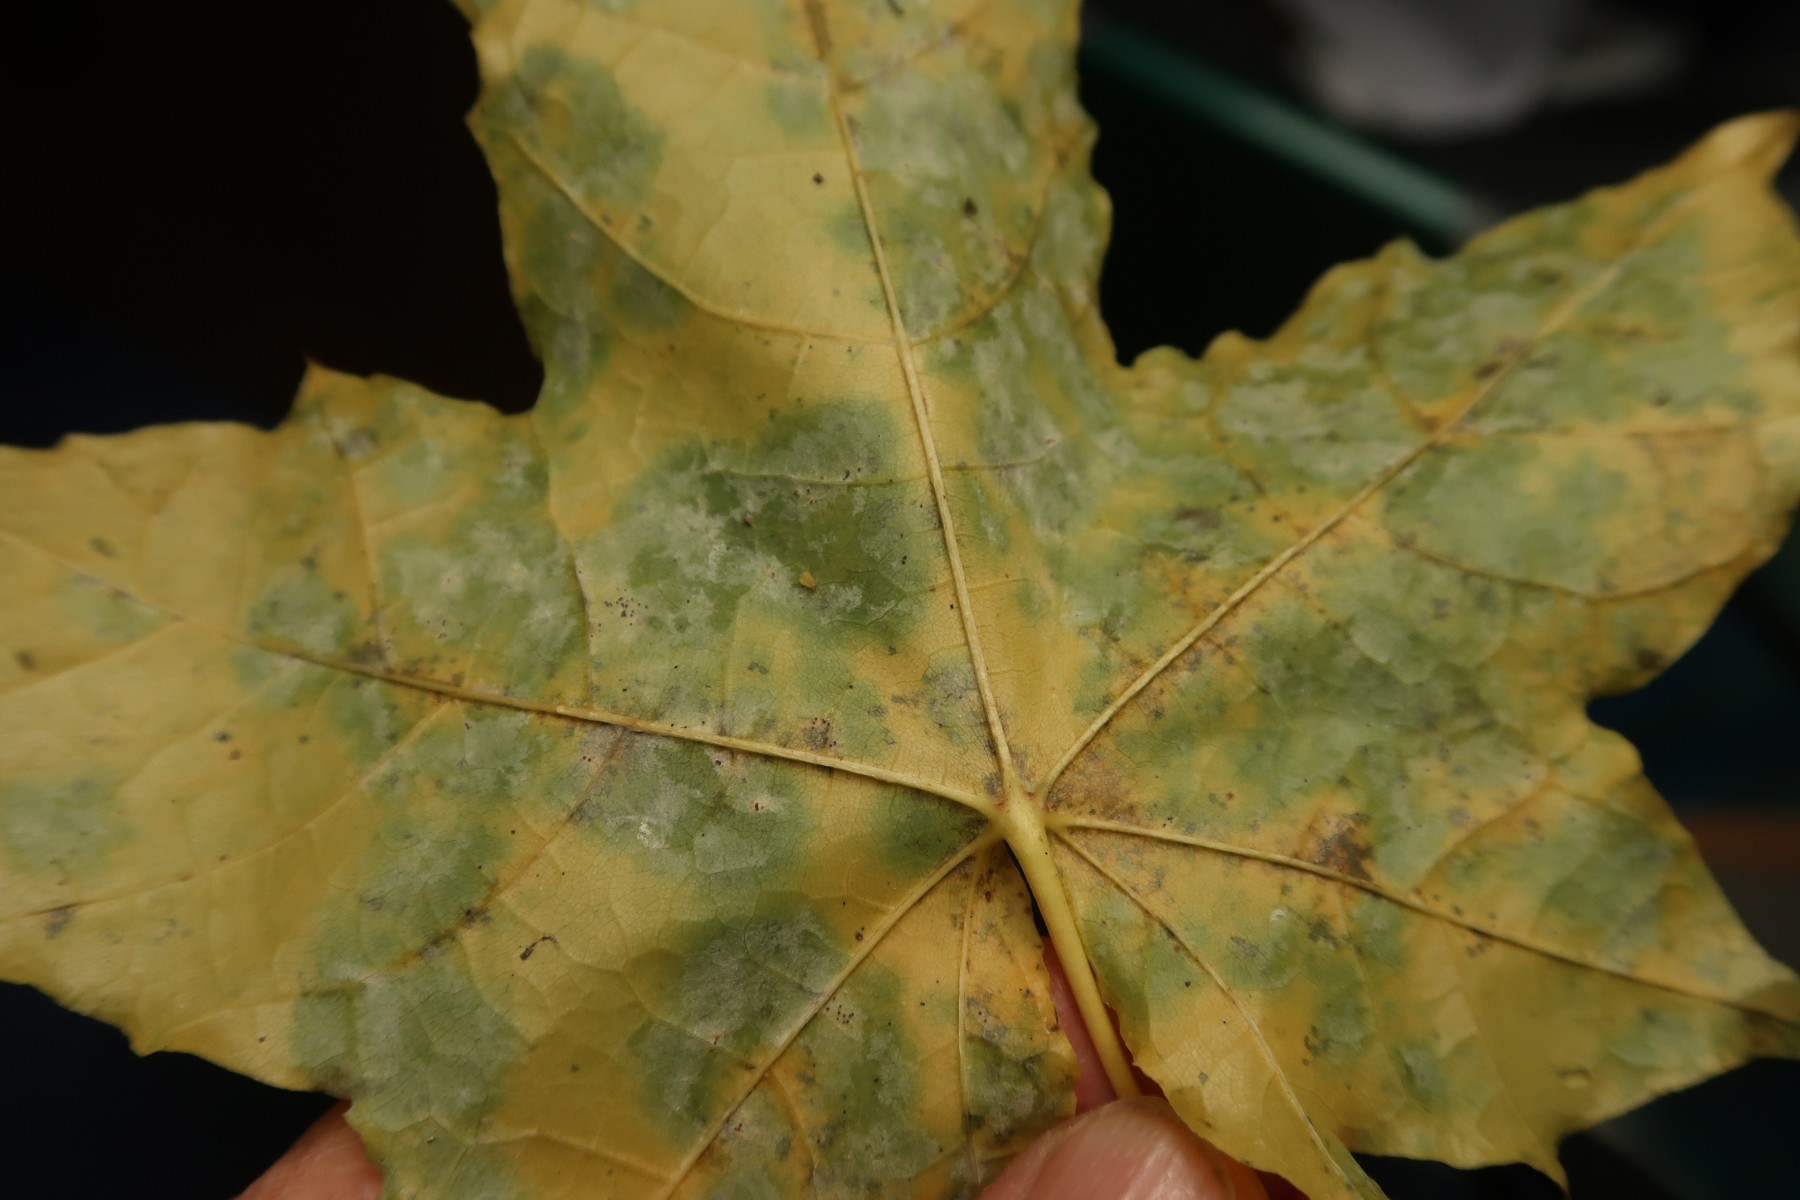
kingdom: Fungi
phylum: Ascomycota
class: Leotiomycetes
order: Helotiales
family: Erysiphaceae
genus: Sawadaea
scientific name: Sawadaea bicornis
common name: Maple mildew
